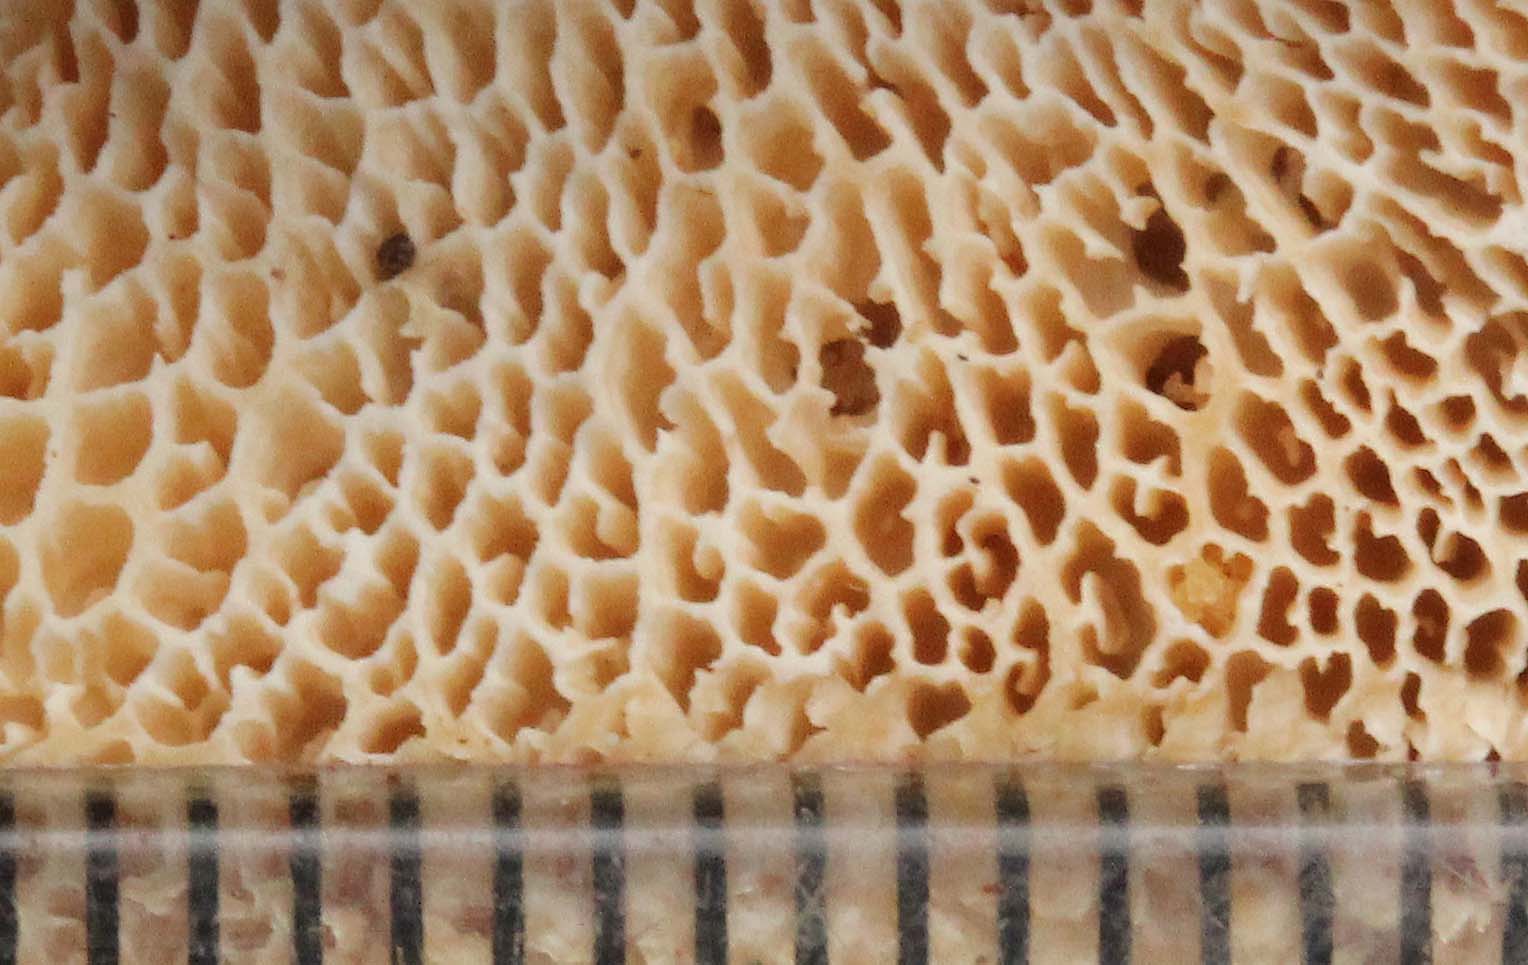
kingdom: Fungi
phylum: Basidiomycota
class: Agaricomycetes
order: Polyporales
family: Polyporaceae
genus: Polyporus
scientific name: Polyporus umbellatus
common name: skærmformet stilkporesvamp
